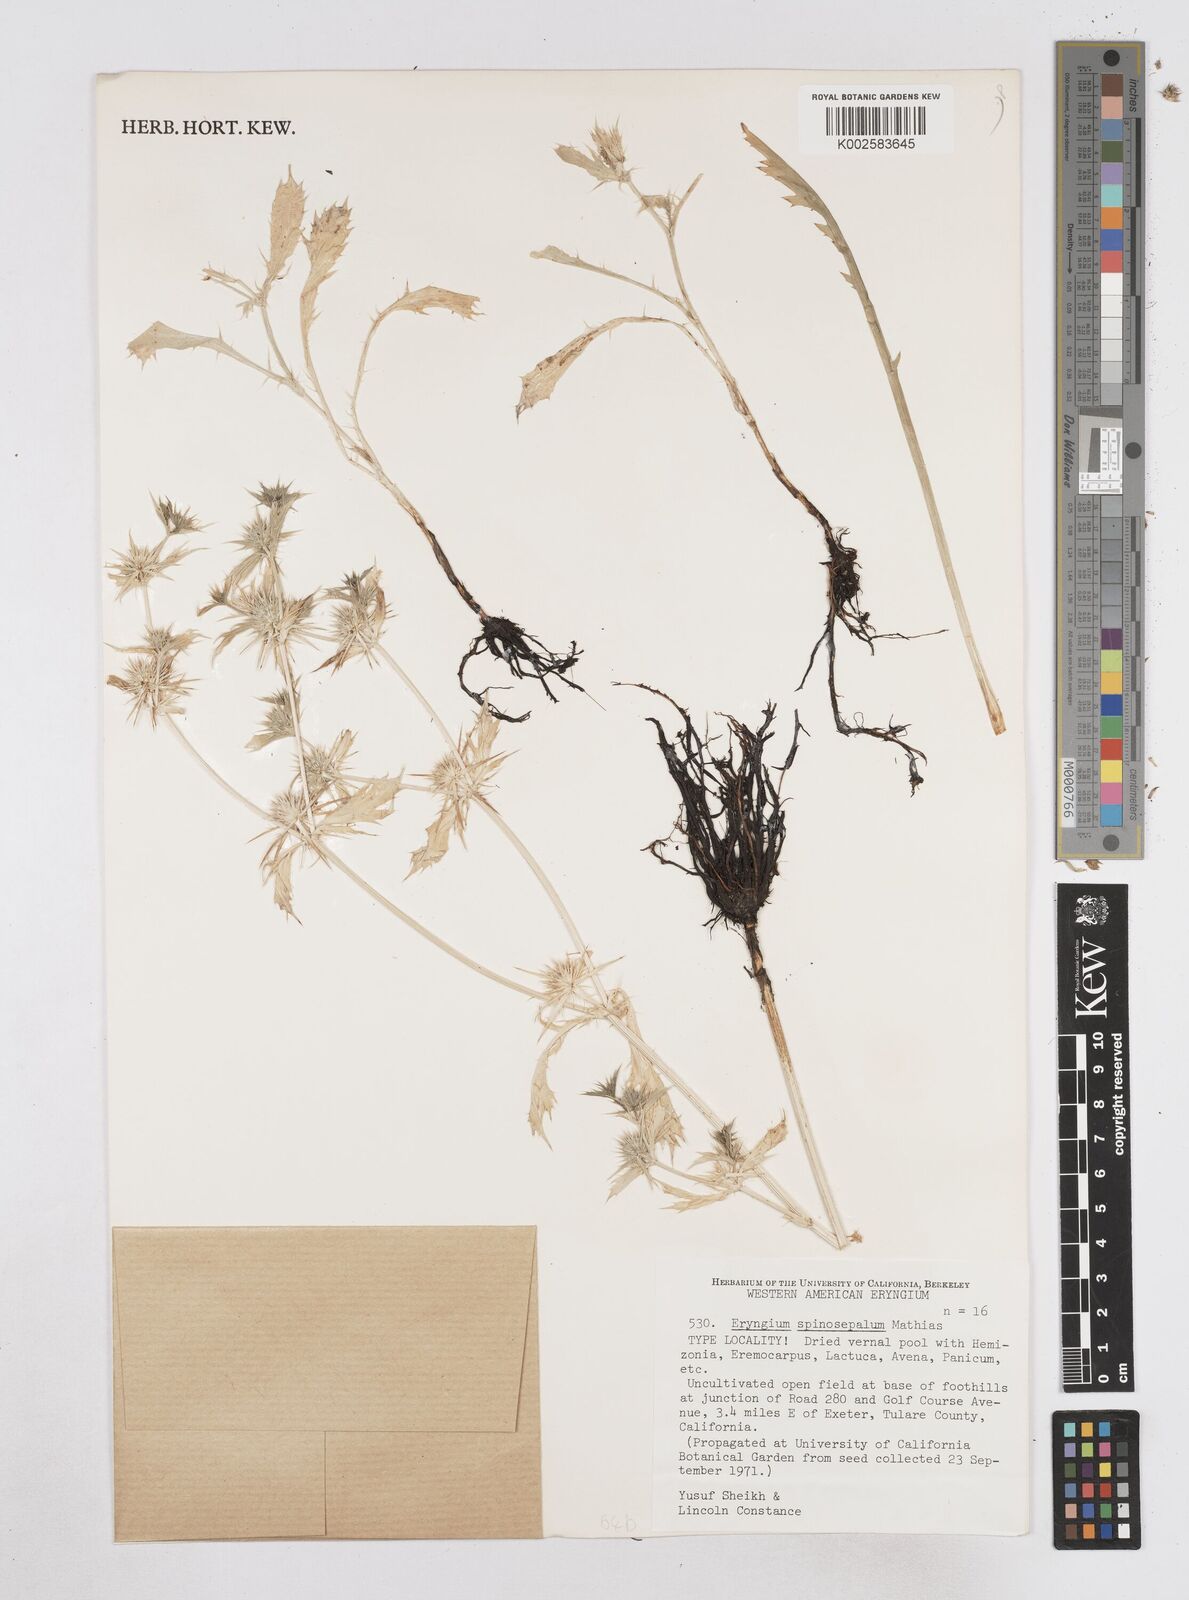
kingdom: Plantae
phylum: Tracheophyta
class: Magnoliopsida
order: Apiales
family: Apiaceae
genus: Eryngium
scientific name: Eryngium vaseyi
